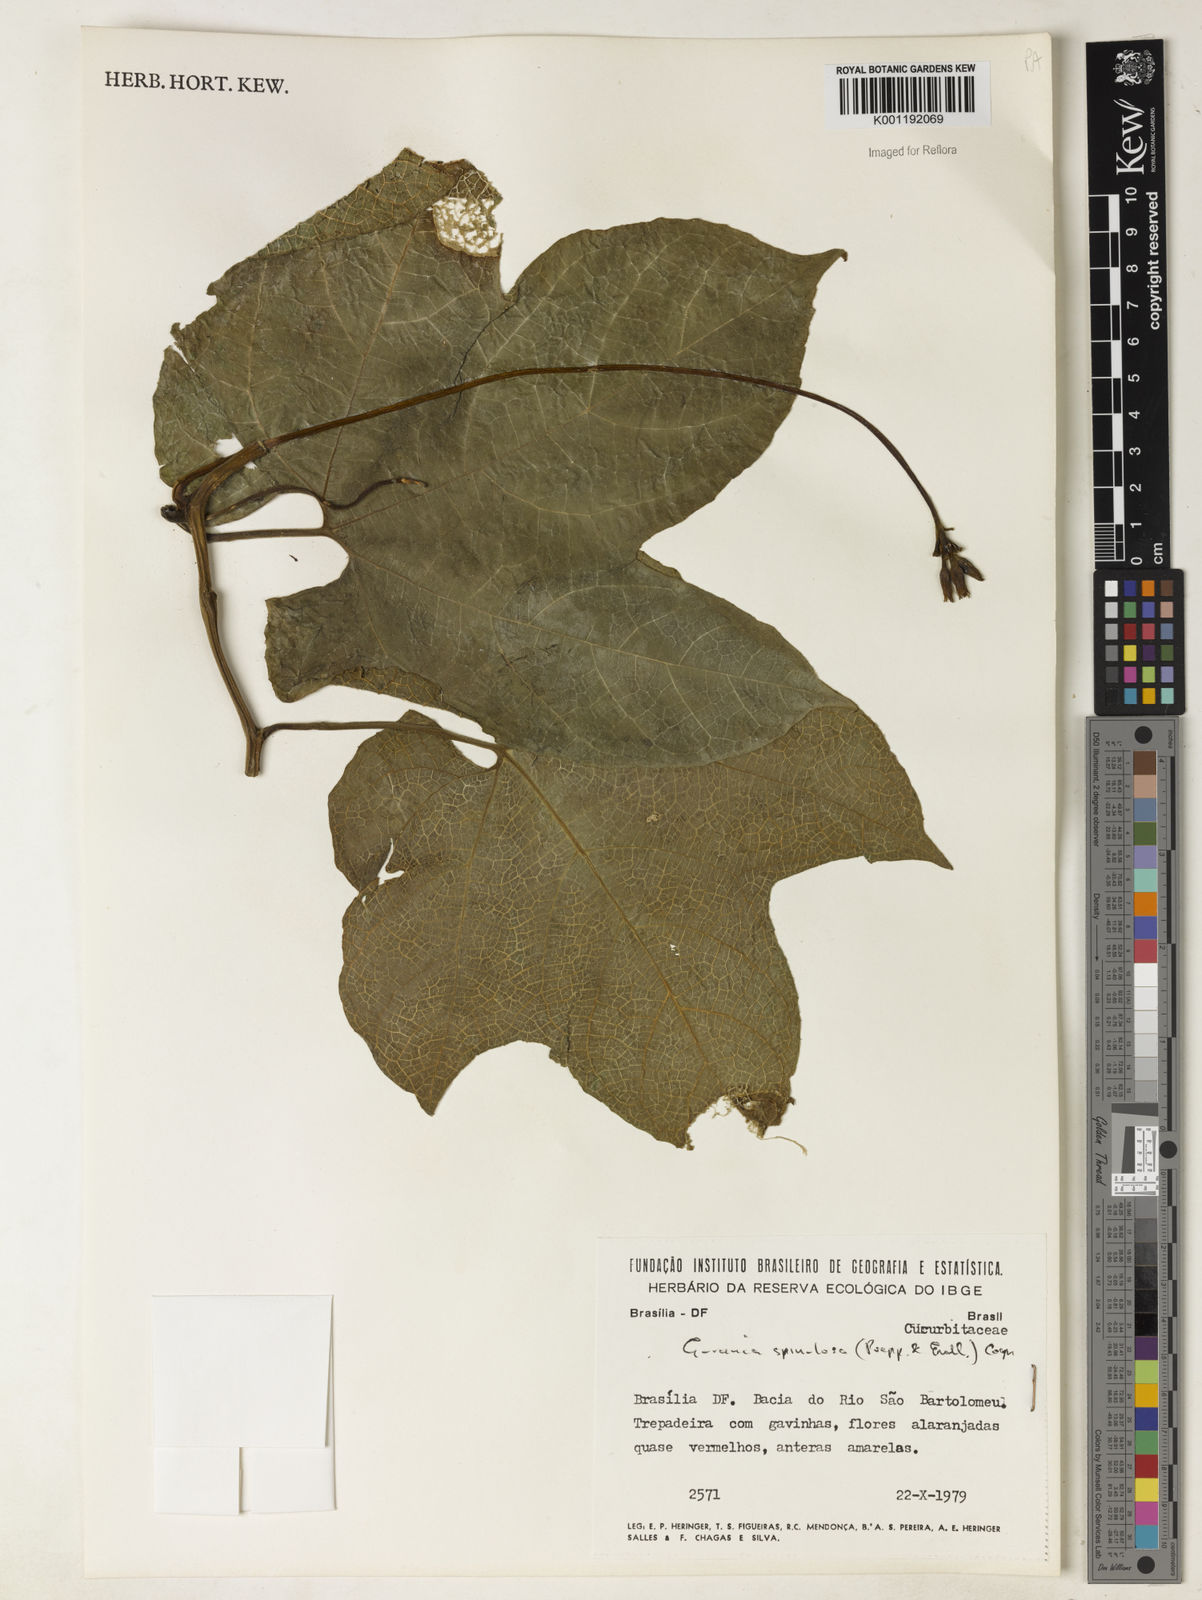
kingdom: Plantae
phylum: Tracheophyta
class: Magnoliopsida
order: Cucurbitales
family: Cucurbitaceae
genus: Gurania
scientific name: Gurania lobata
